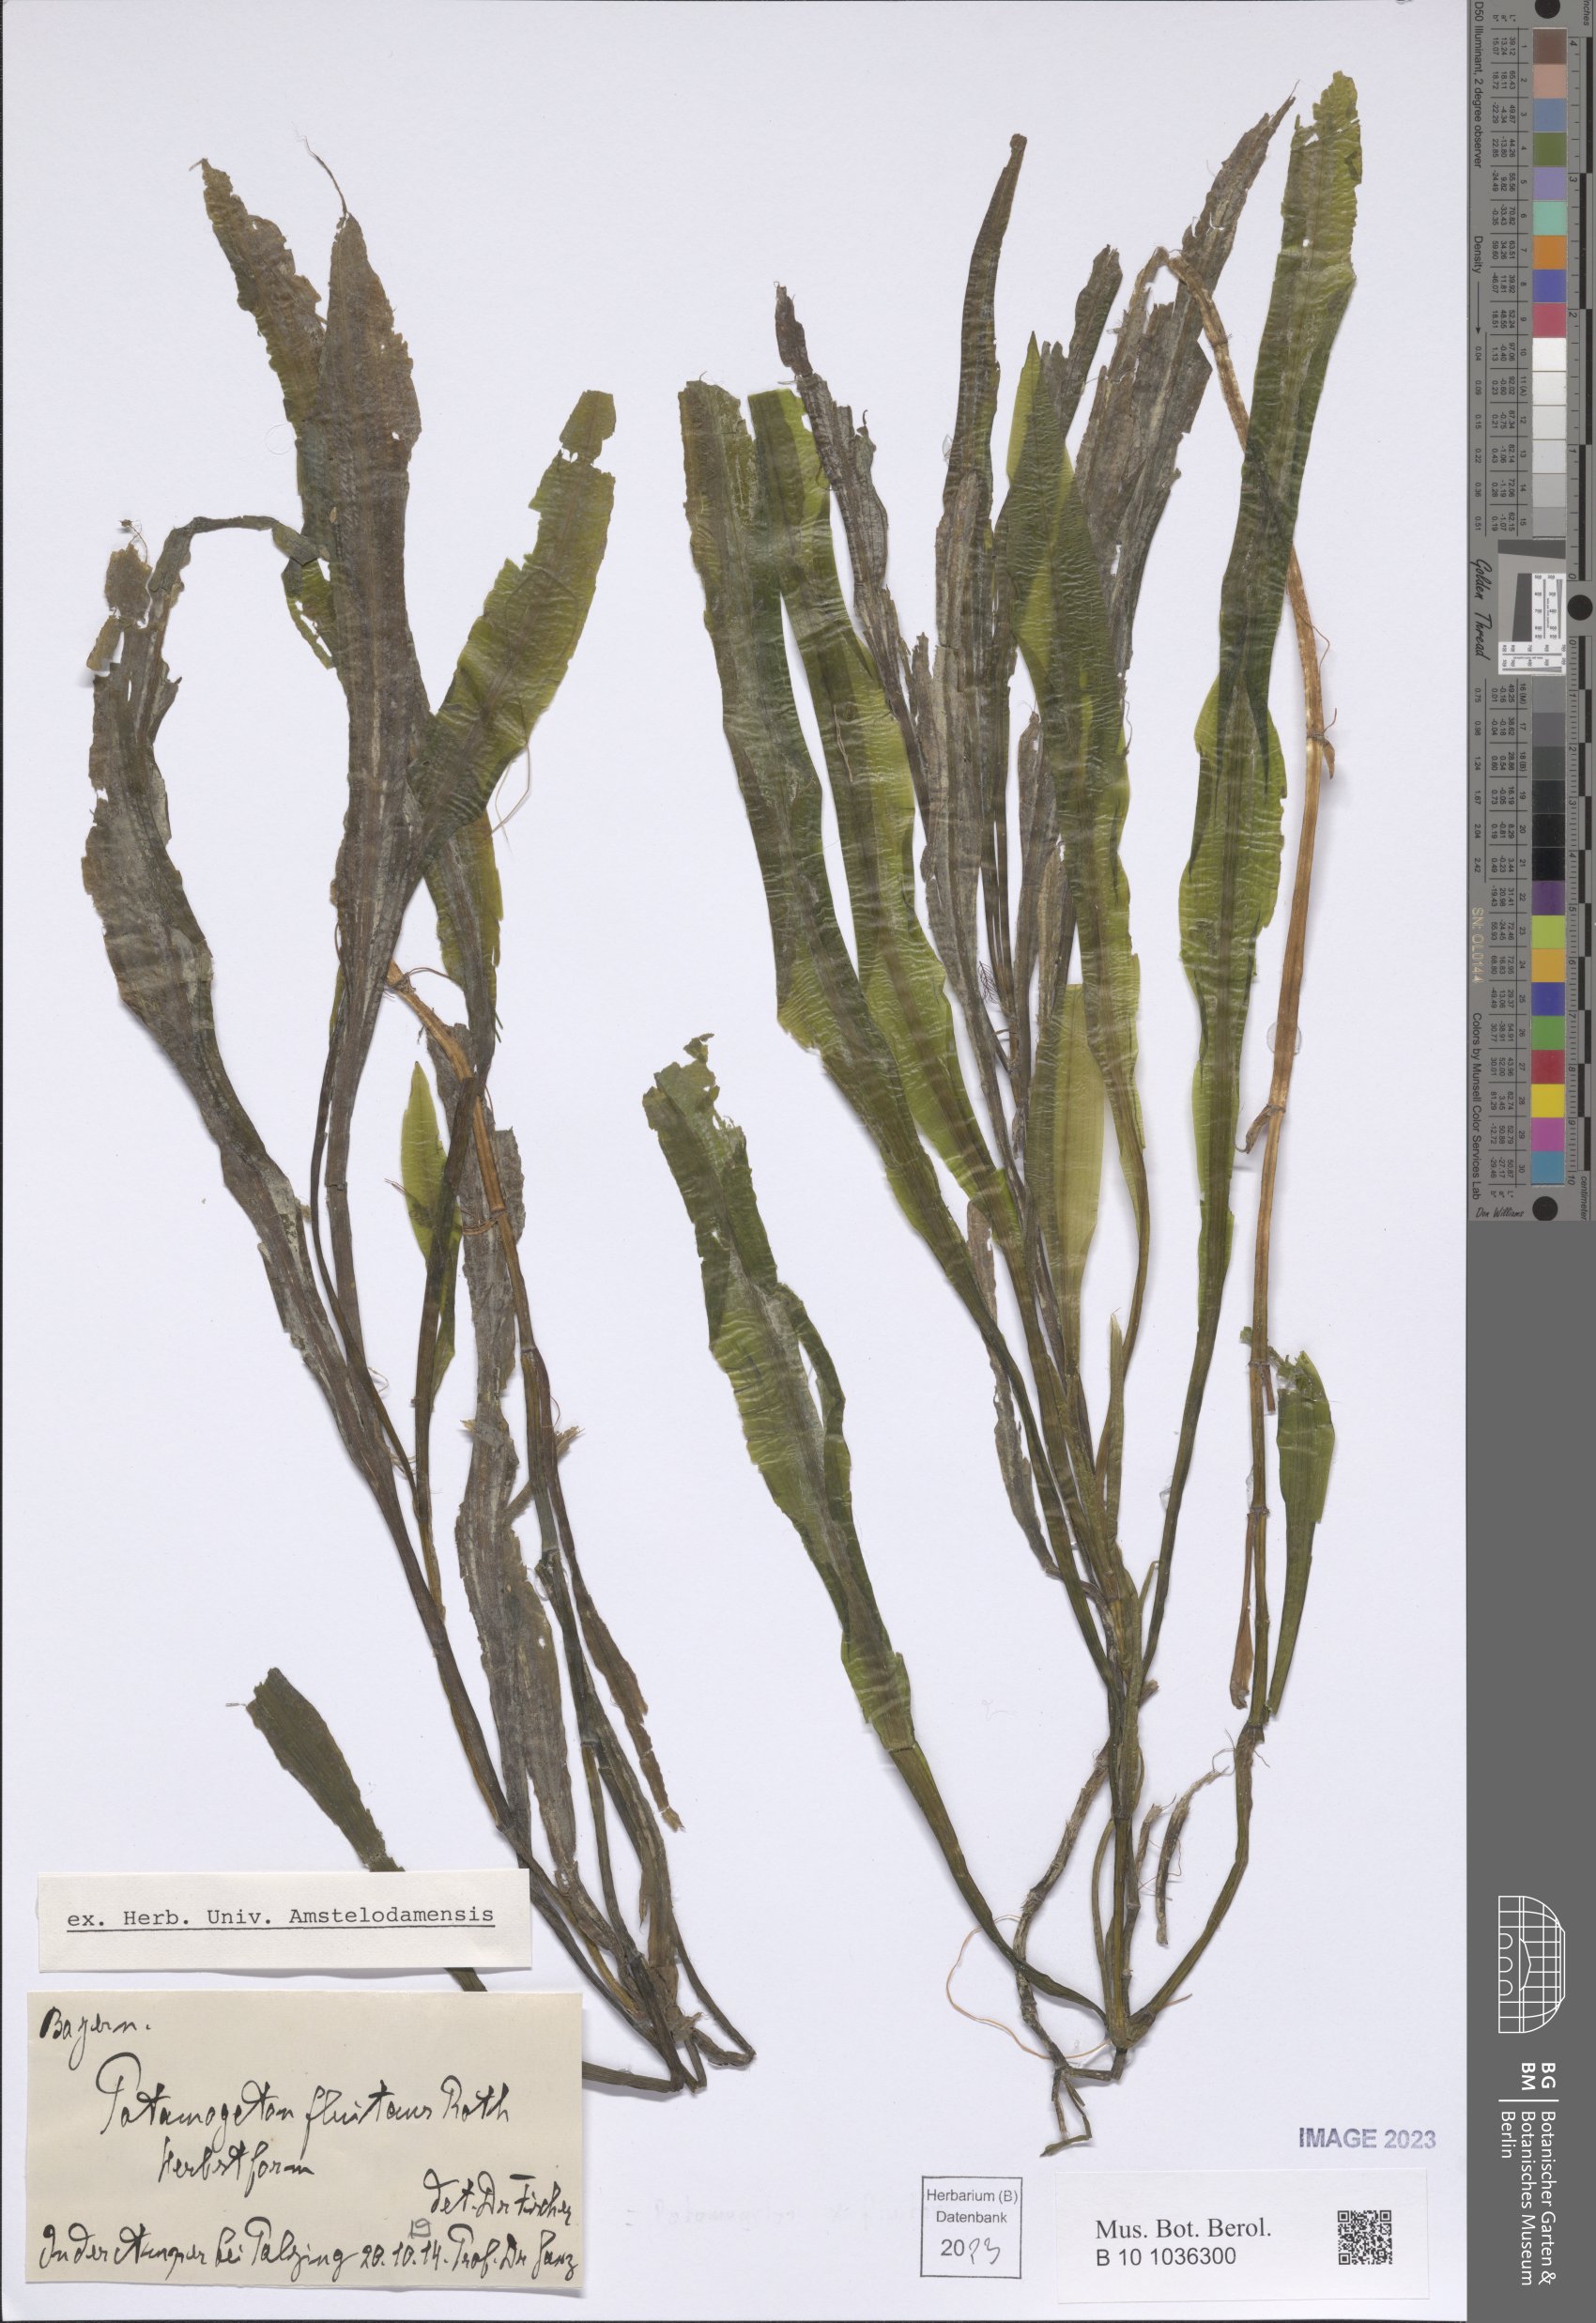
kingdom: Plantae
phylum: Tracheophyta
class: Liliopsida
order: Alismatales
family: Potamogetonaceae
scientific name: Potamogetonaceae
